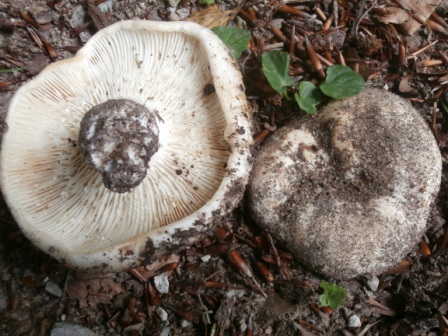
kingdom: Fungi
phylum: Basidiomycota
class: Agaricomycetes
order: Russulales
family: Russulaceae
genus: Russula
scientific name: Russula chloroides
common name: grønhalset tragt-skørhat
